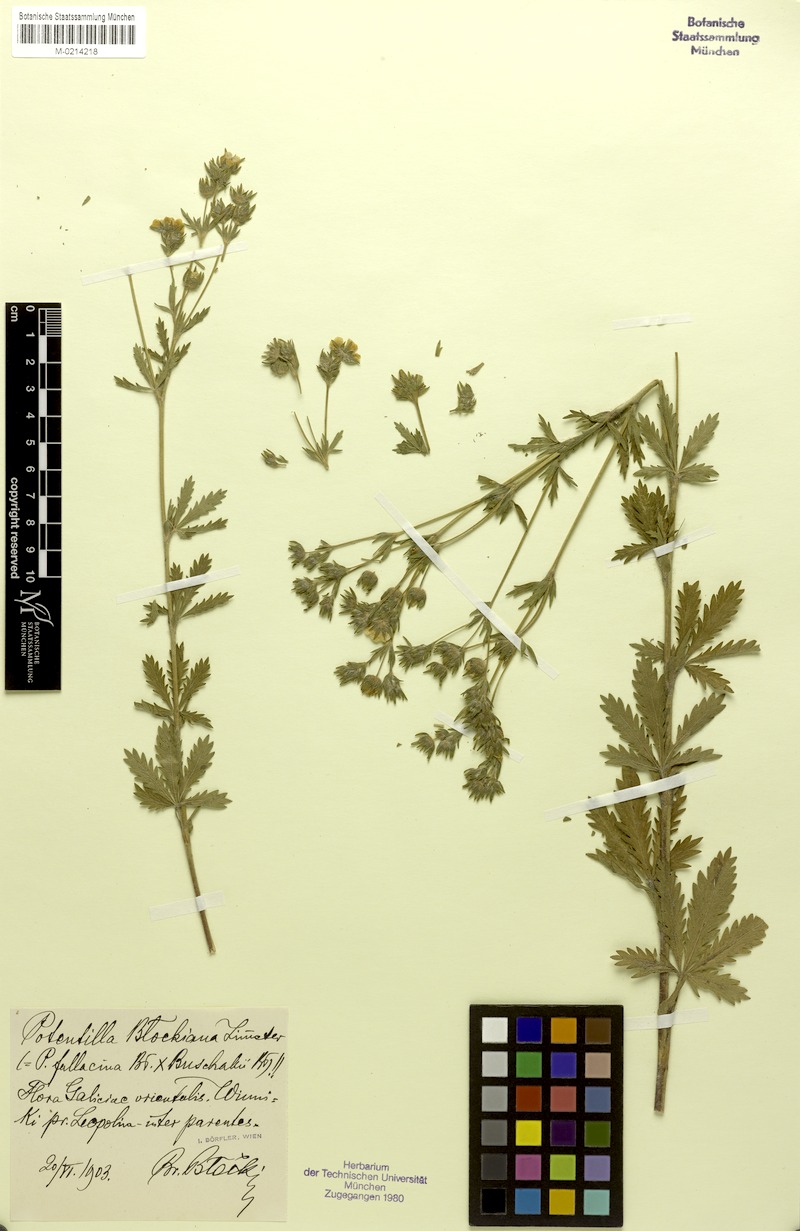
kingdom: Plantae
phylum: Tracheophyta
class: Magnoliopsida
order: Rosales
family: Rosaceae
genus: Potentilla
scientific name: Potentilla
